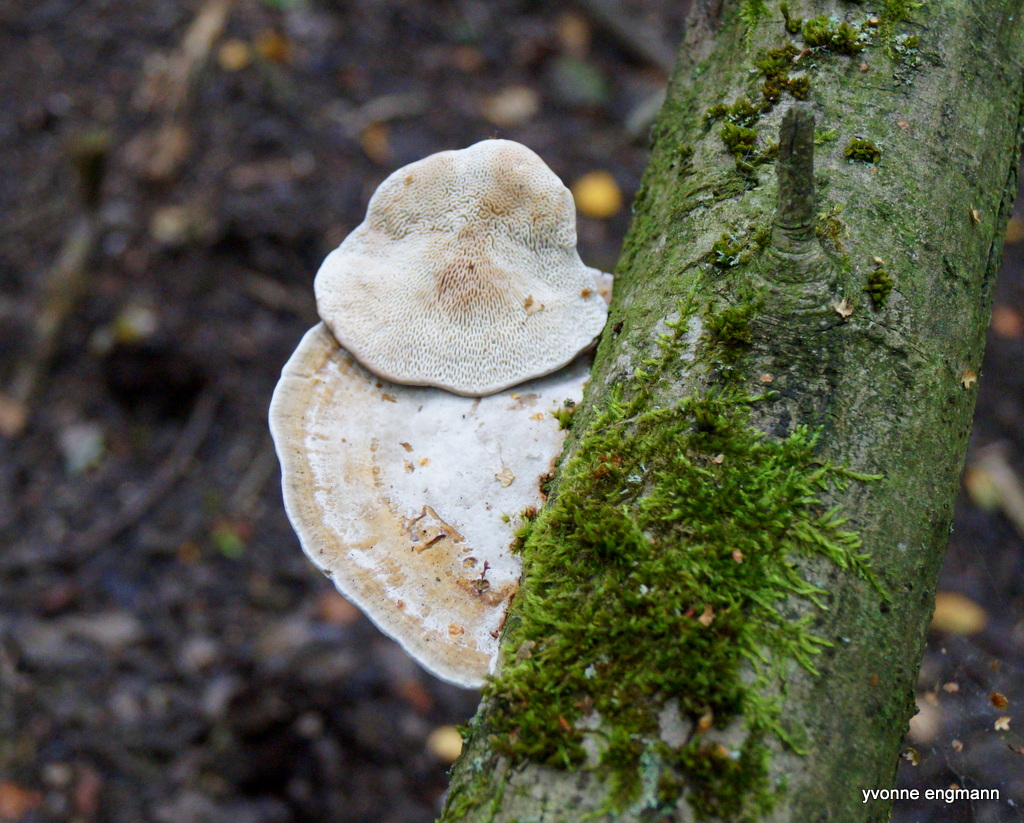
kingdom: Fungi
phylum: Basidiomycota
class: Agaricomycetes
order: Polyporales
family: Polyporaceae
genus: Daedaleopsis
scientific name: Daedaleopsis confragosa
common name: rødmende læderporesvamp
